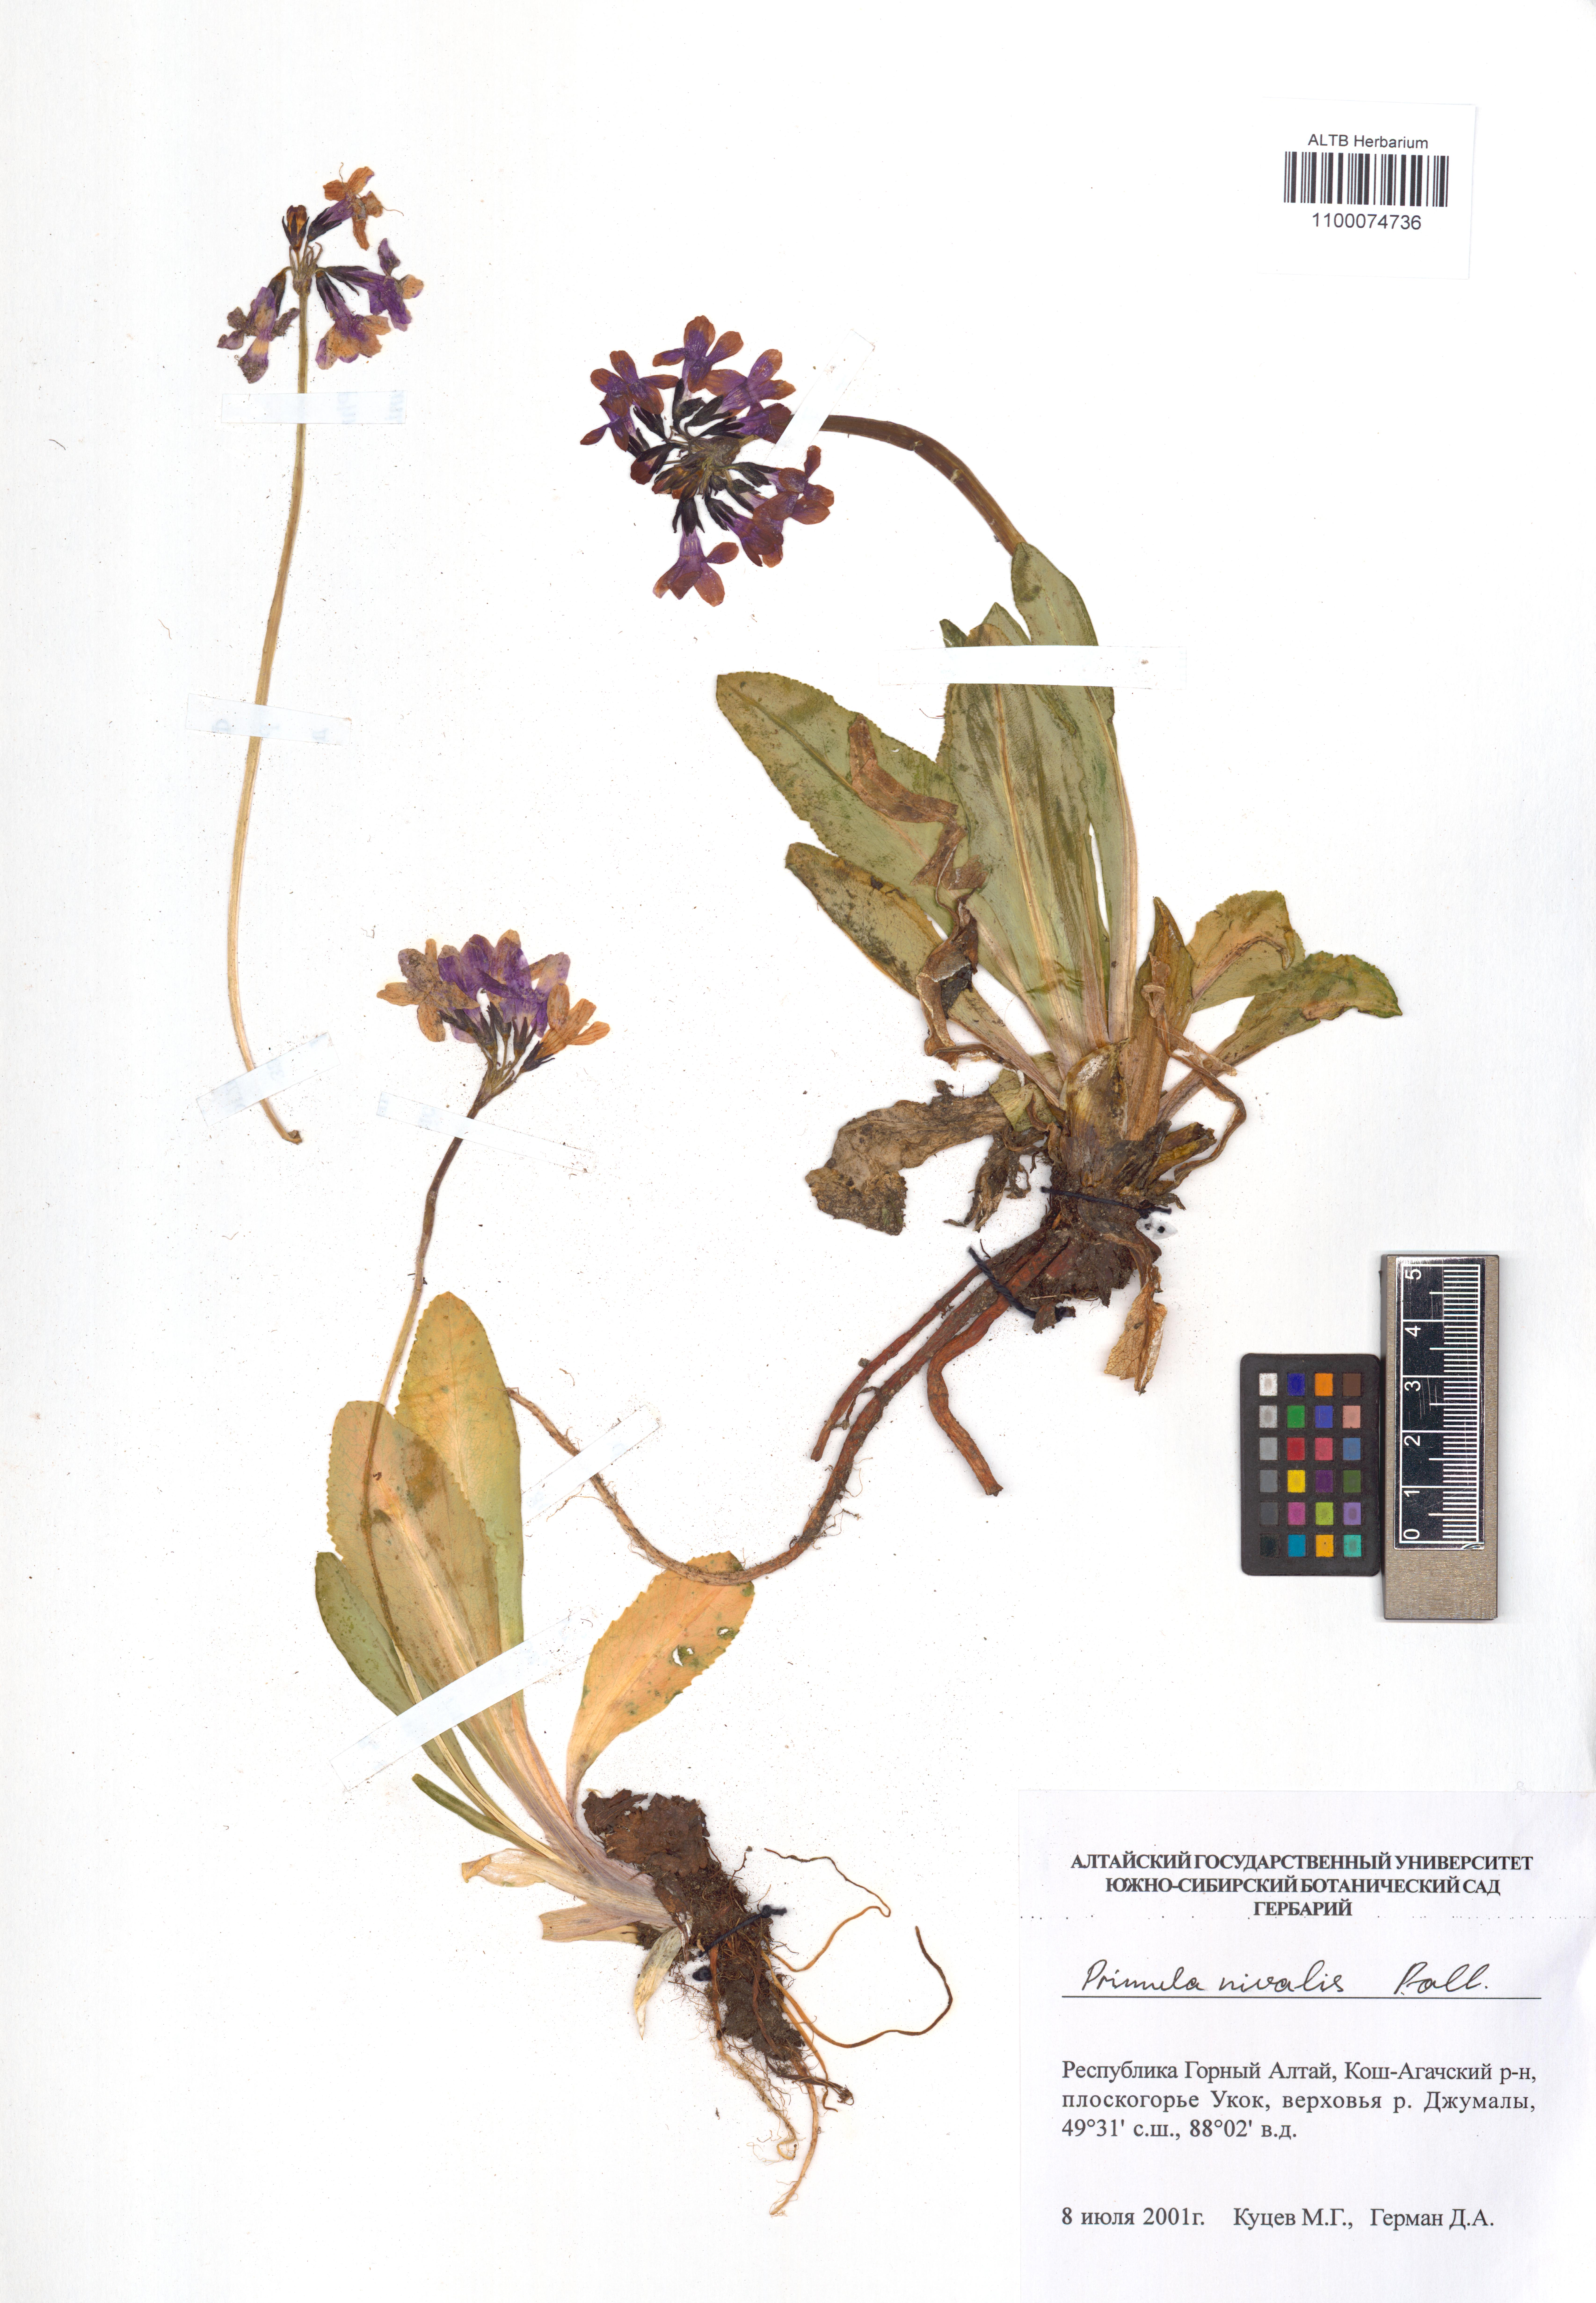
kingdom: Plantae
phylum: Tracheophyta
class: Magnoliopsida
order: Ericales
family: Primulaceae
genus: Primula
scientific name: Primula nivalis
